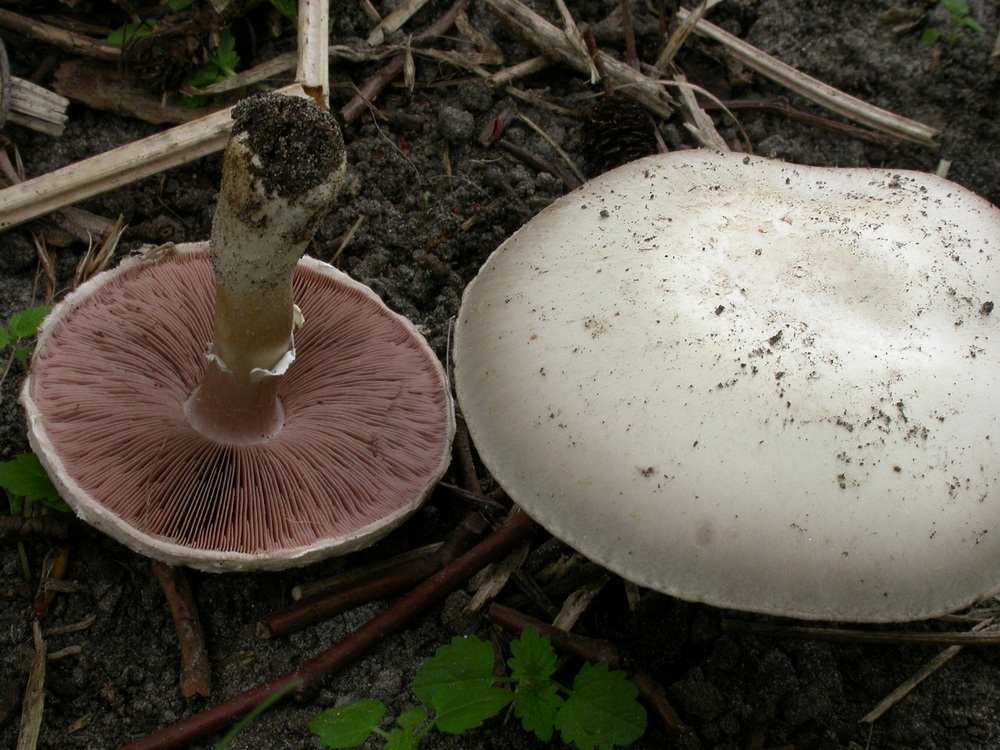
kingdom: Fungi
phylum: Basidiomycota
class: Agaricomycetes
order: Agaricales
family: Agaricaceae
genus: Agaricus
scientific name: Agaricus altipes
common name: sommer-champignon
